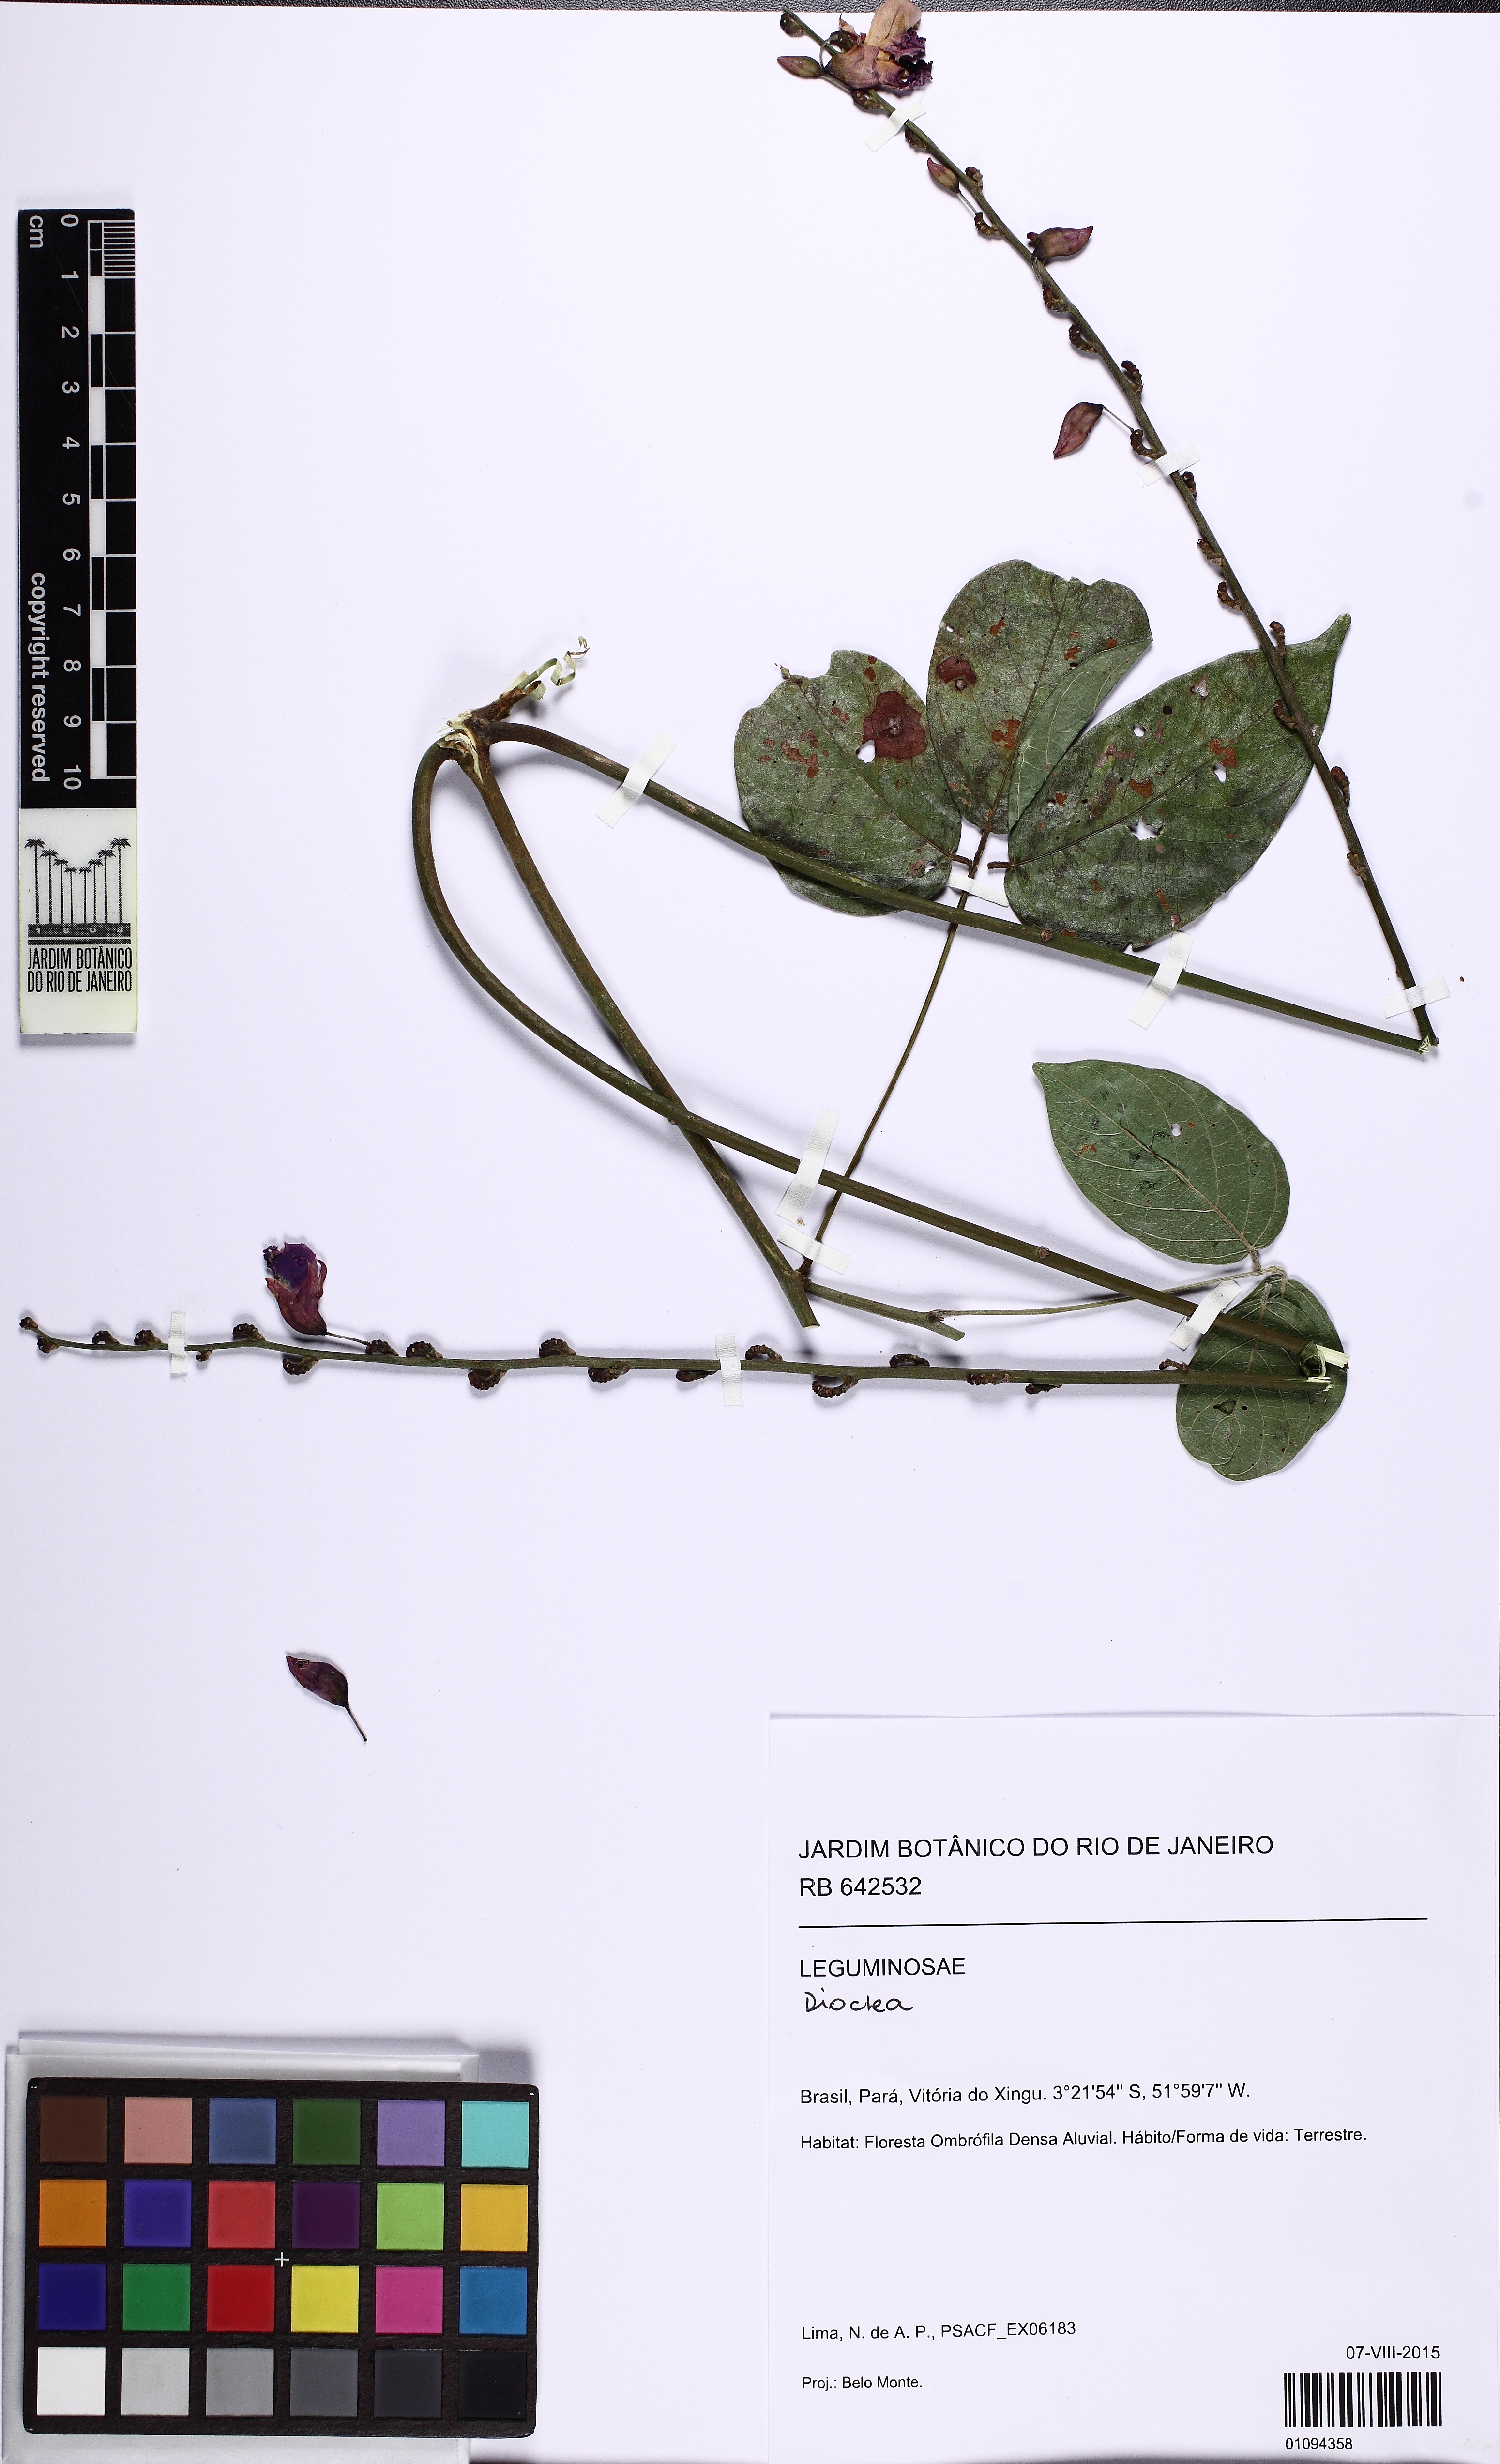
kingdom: Plantae
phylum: Tracheophyta
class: Magnoliopsida
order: Fabales
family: Fabaceae
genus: Dioclea
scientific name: Dioclea
